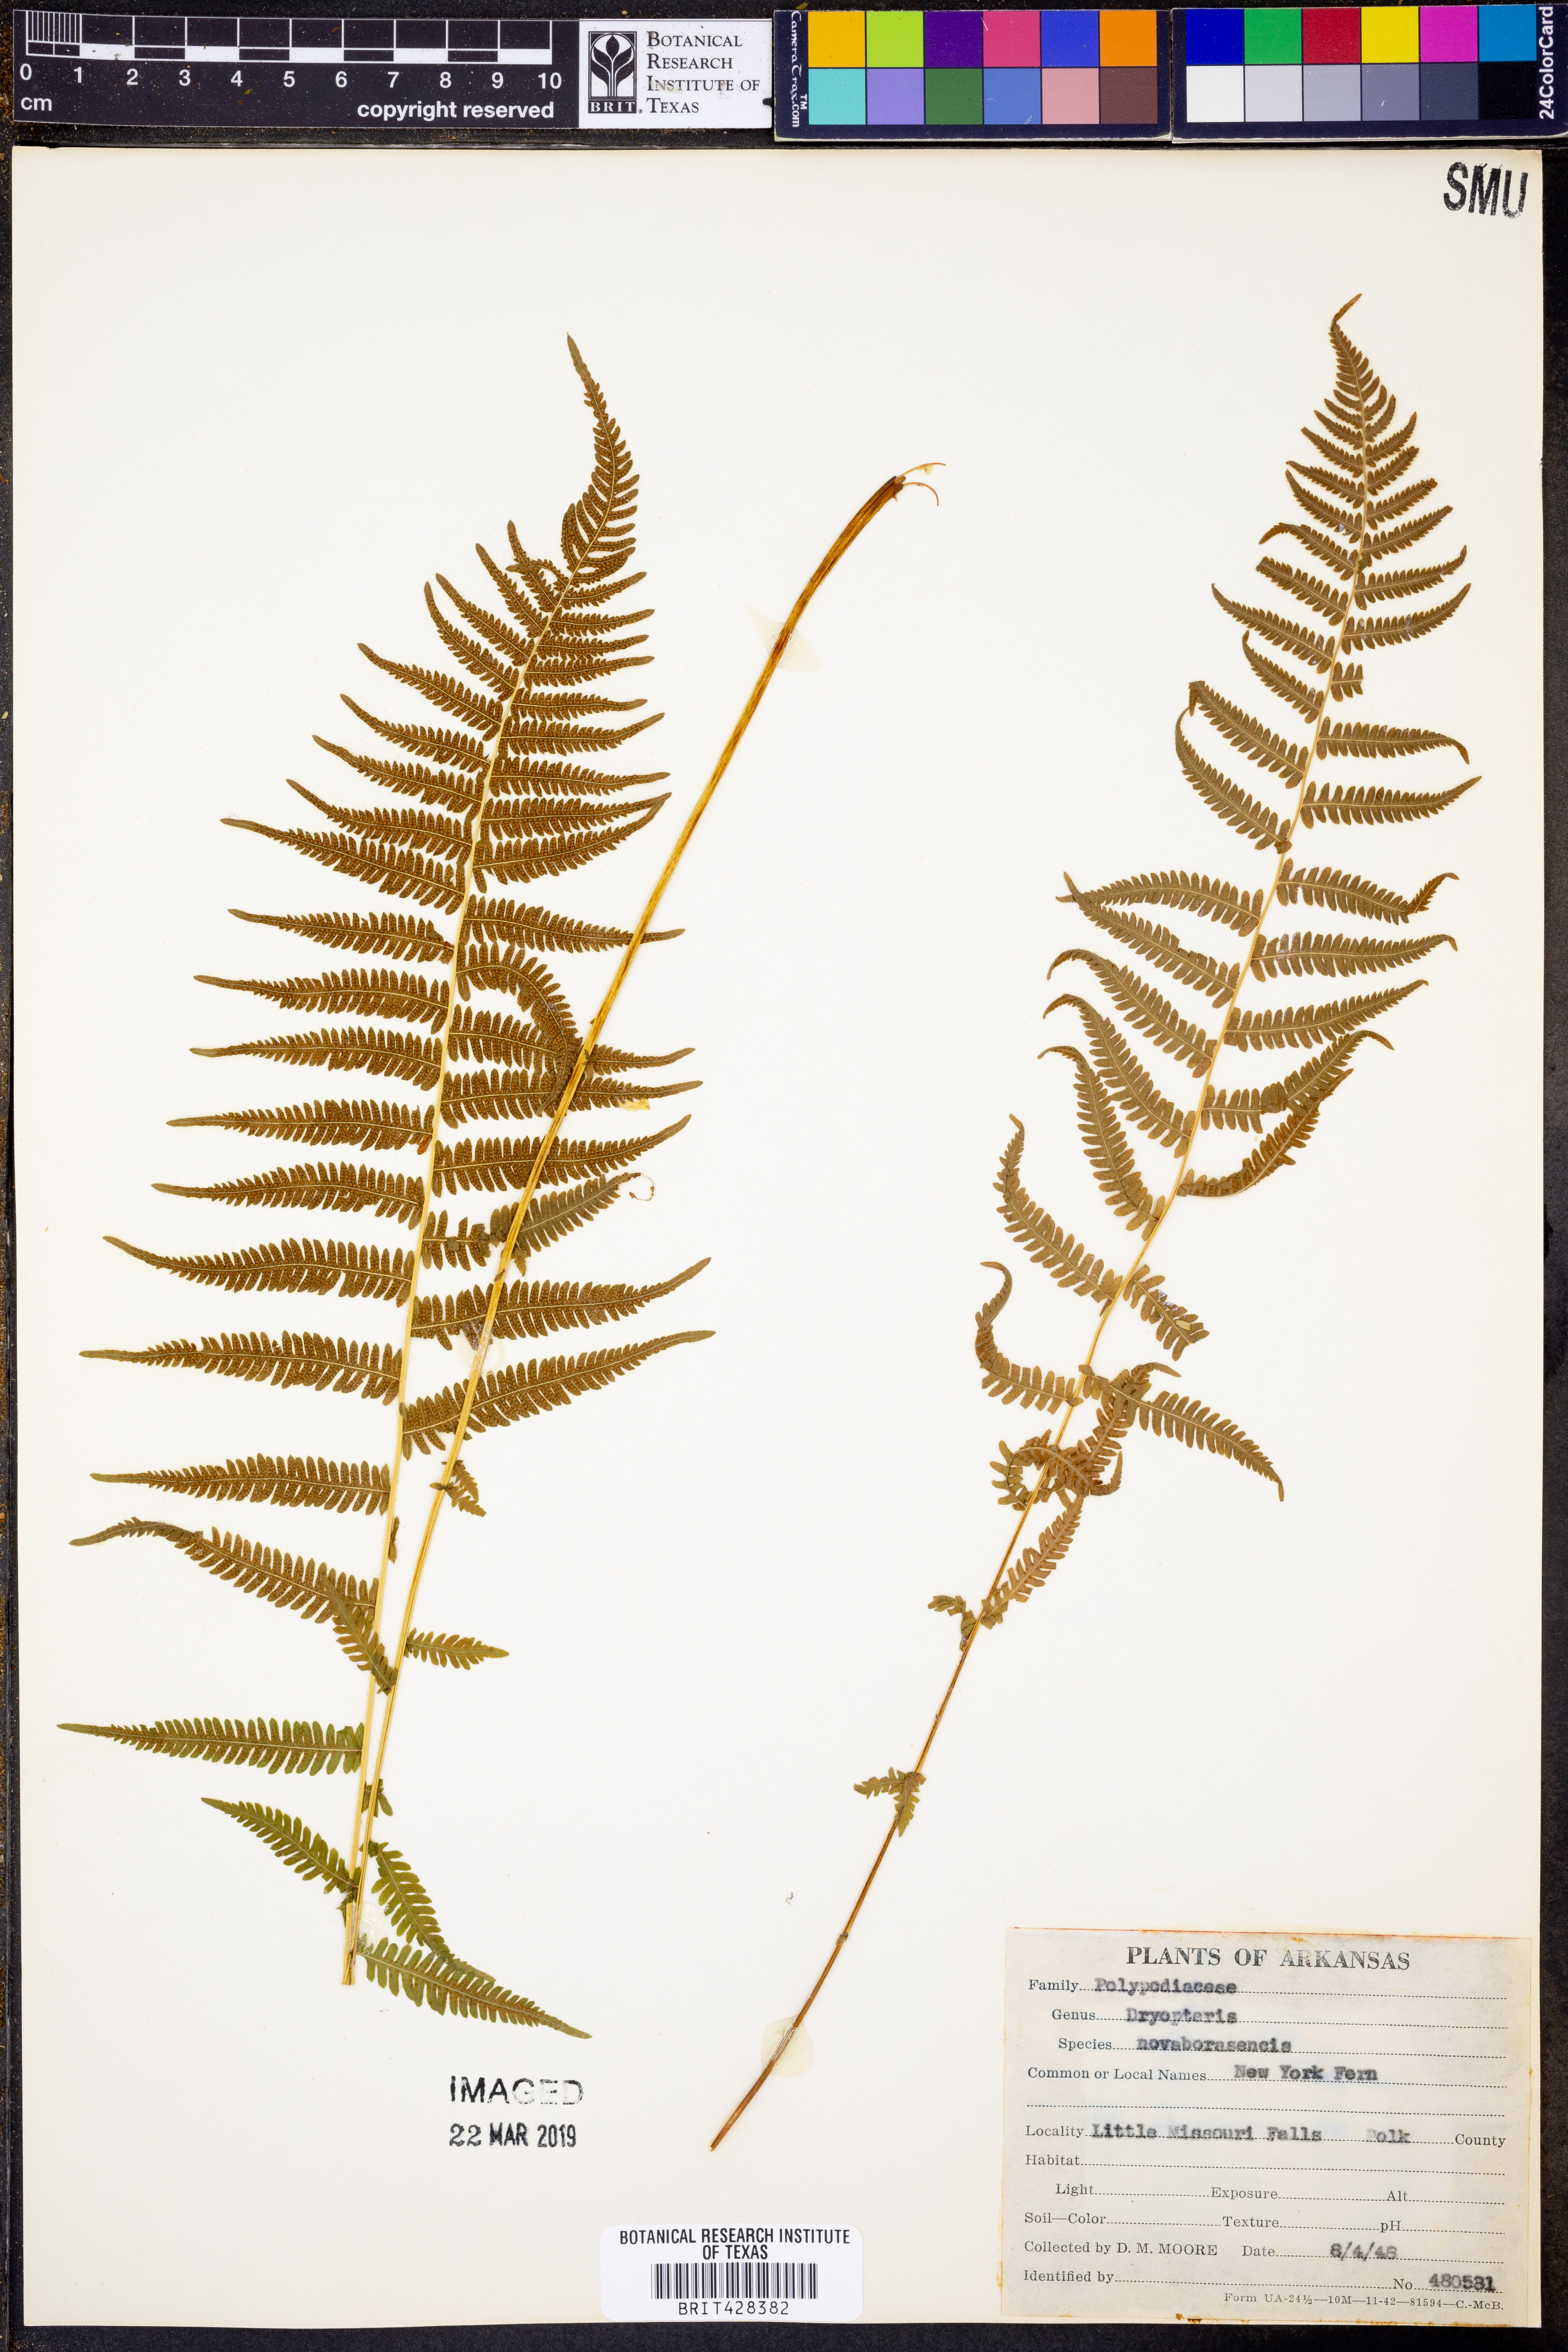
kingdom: Plantae
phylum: Tracheophyta
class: Polypodiopsida
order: Polypodiales
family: Thelypteridaceae
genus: Amauropelta
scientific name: Amauropelta noveboracensis
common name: New york fern
